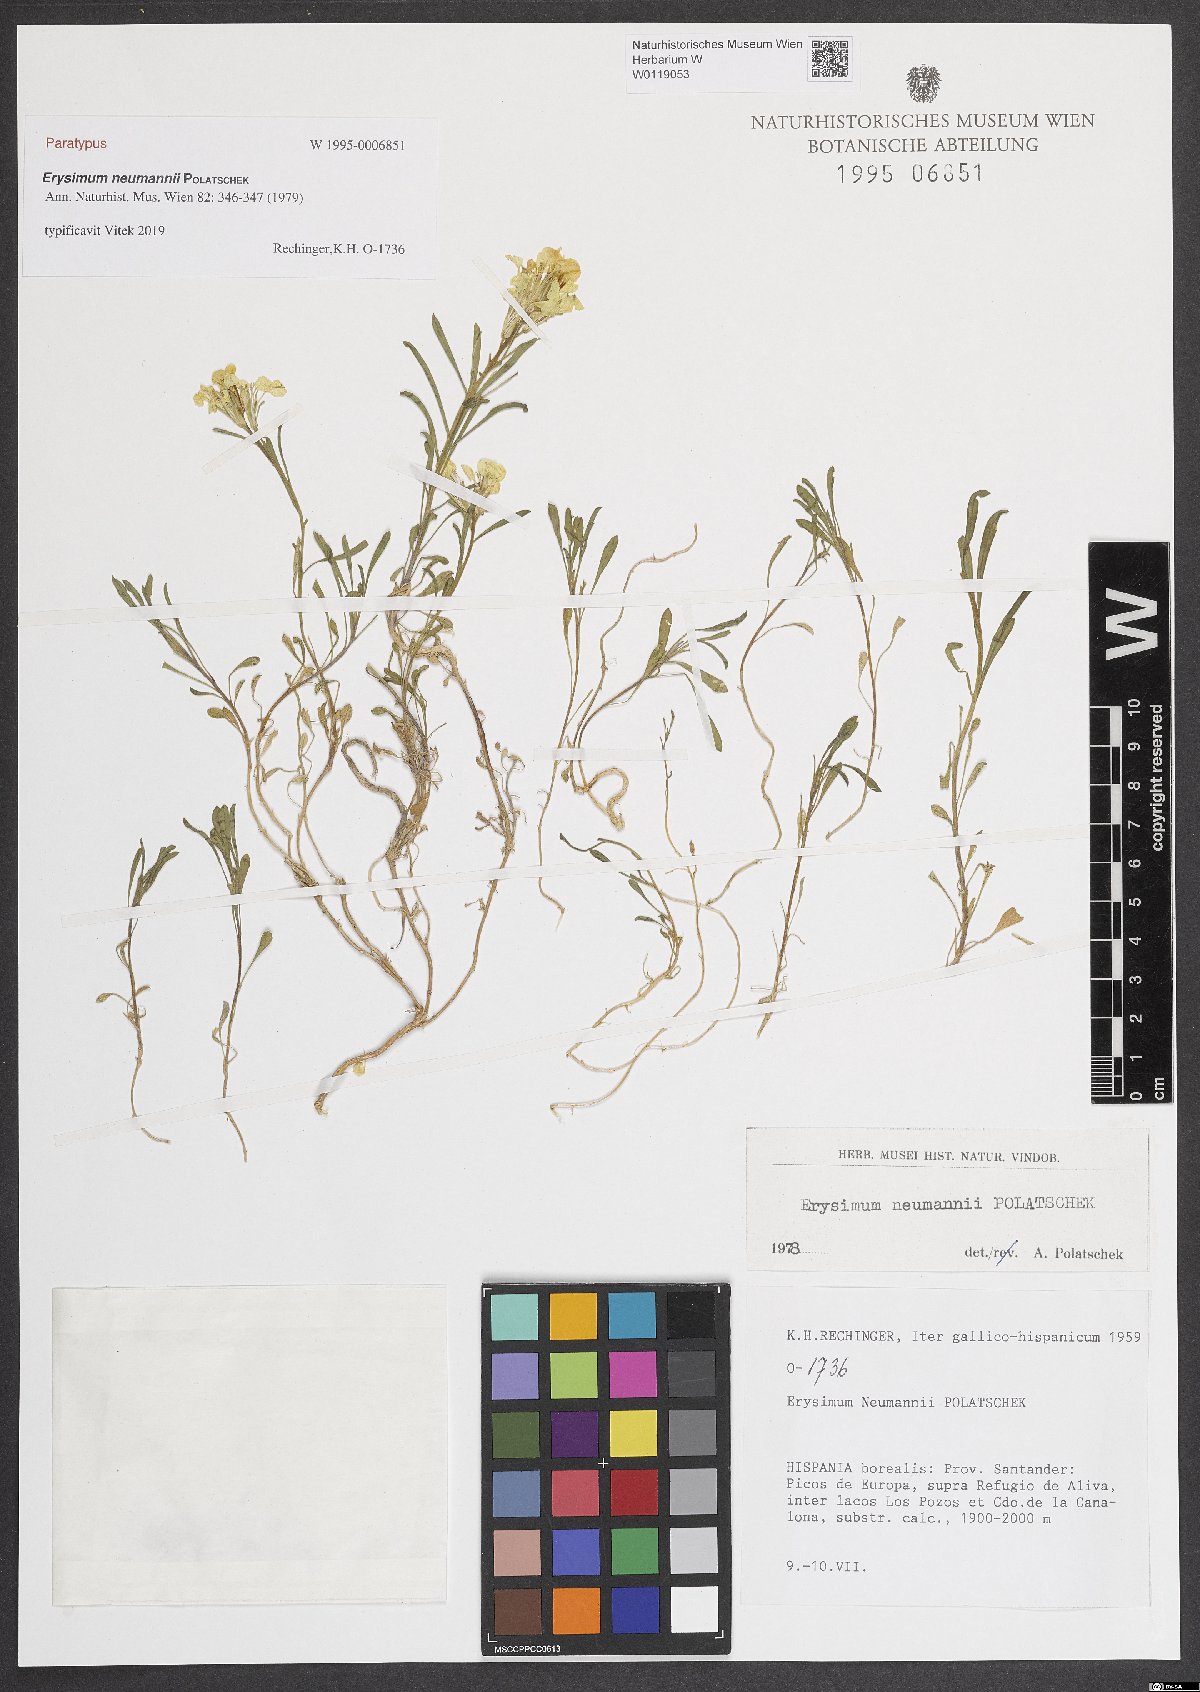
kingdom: Plantae
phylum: Tracheophyta
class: Magnoliopsida
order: Brassicales
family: Brassicaceae
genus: Erysimum
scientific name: Erysimum duriaei
